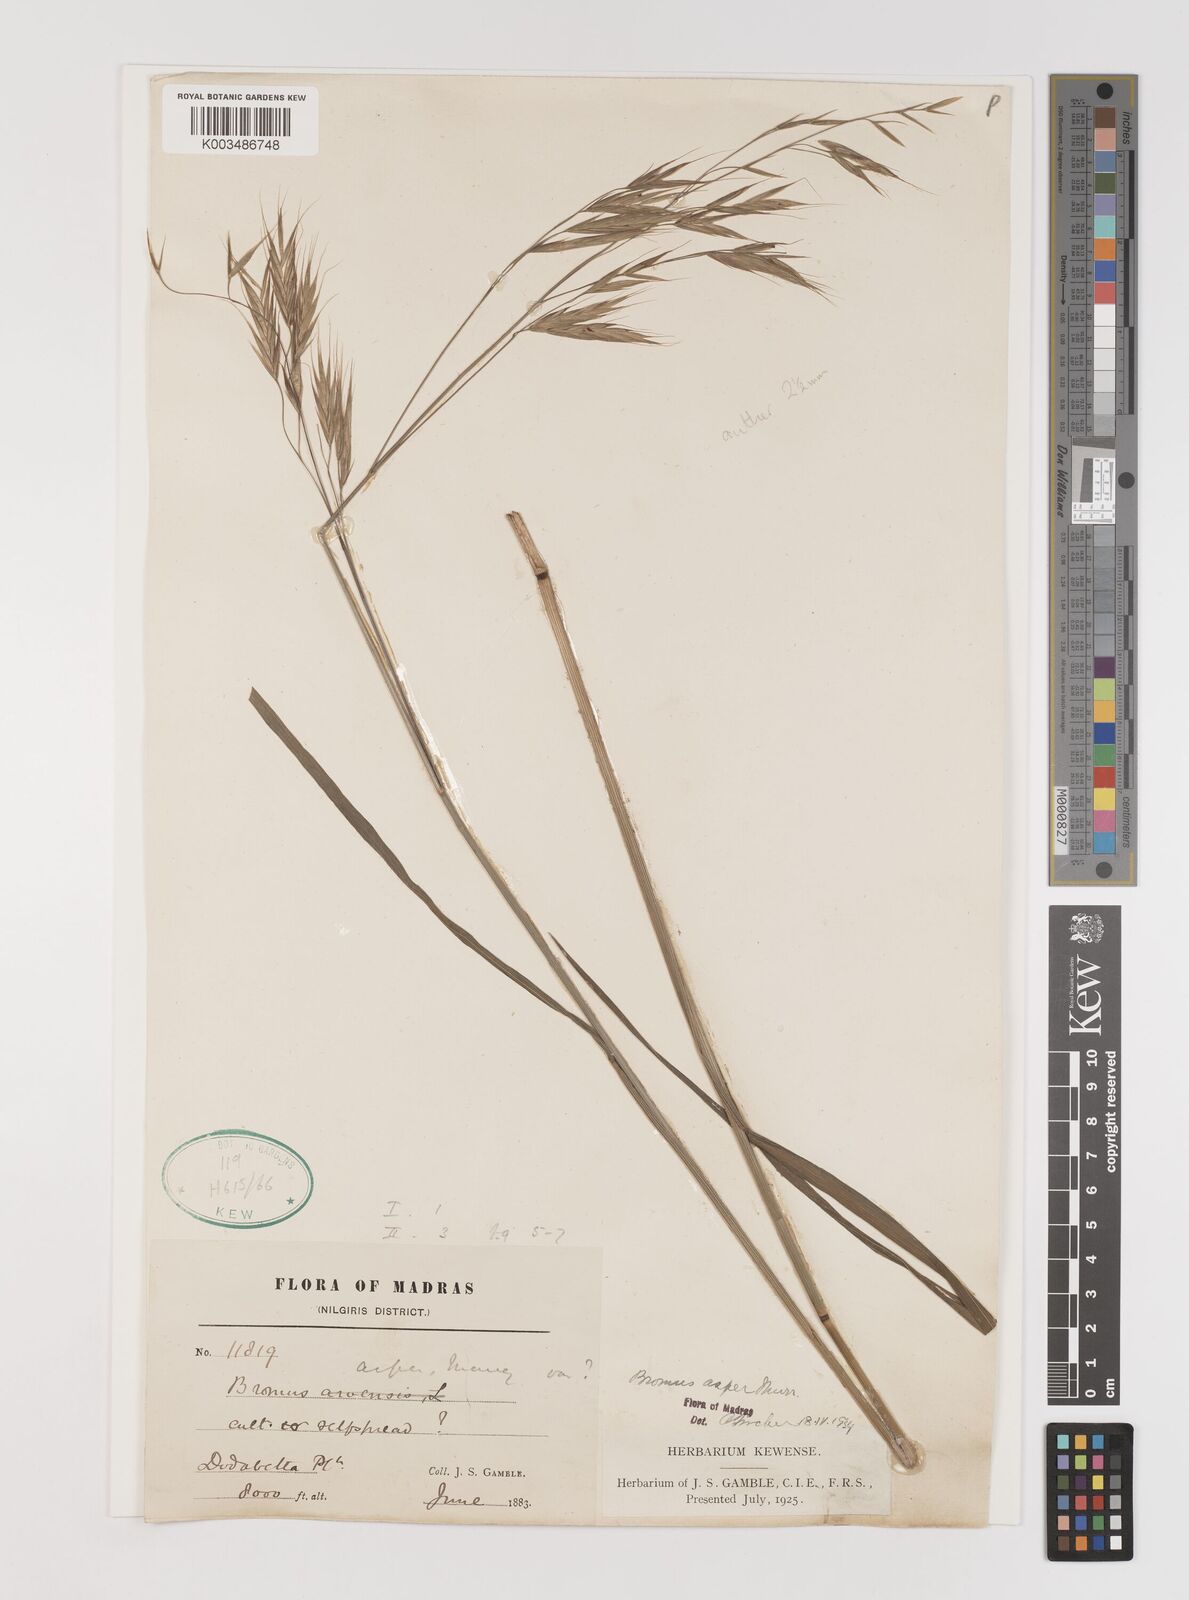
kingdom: Plantae
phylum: Tracheophyta
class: Liliopsida
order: Poales
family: Poaceae
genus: Brachypodium
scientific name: Brachypodium retusum
